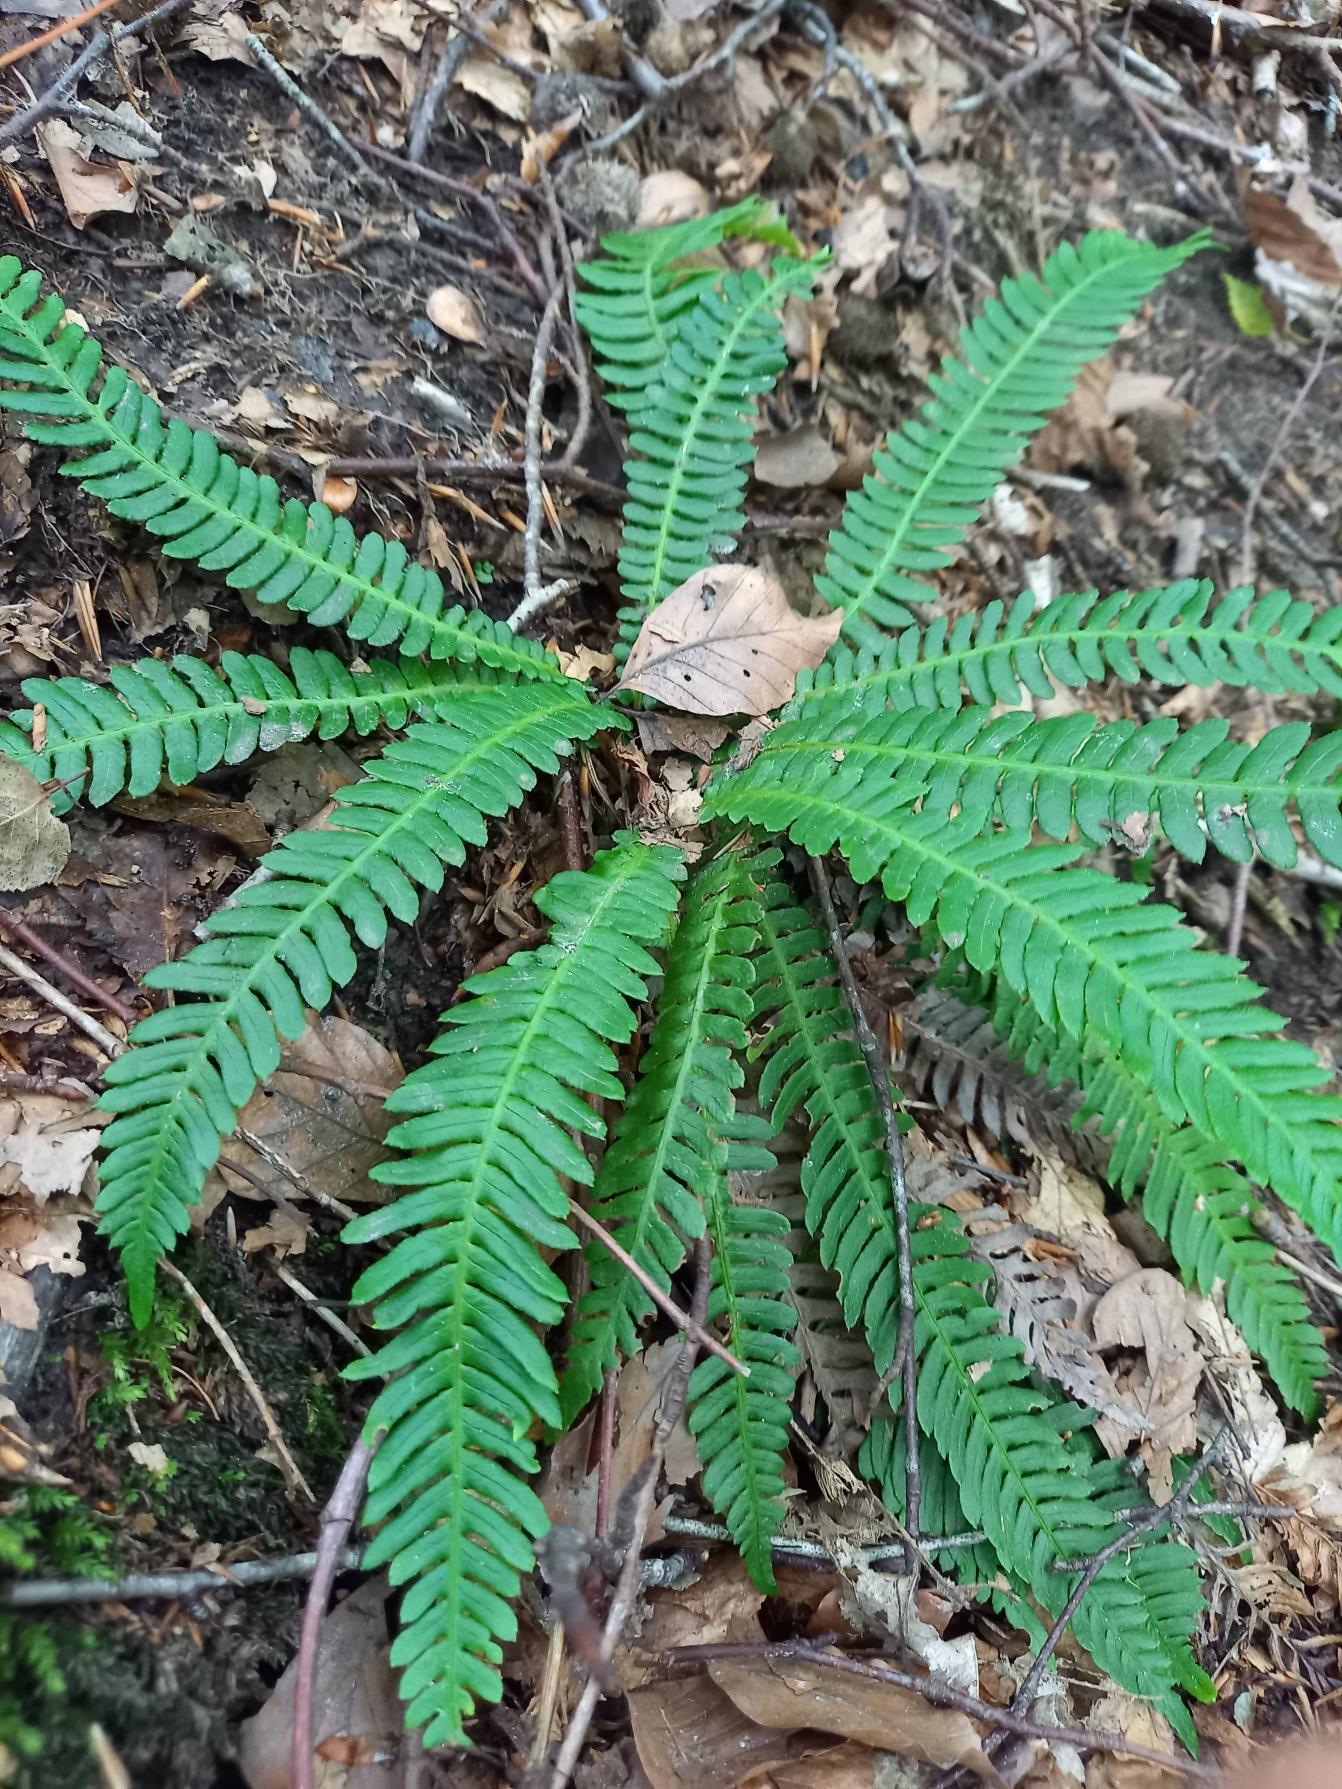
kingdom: Plantae
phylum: Tracheophyta
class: Polypodiopsida
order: Polypodiales
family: Blechnaceae
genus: Struthiopteris
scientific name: Struthiopteris spicant
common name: Kambregne
